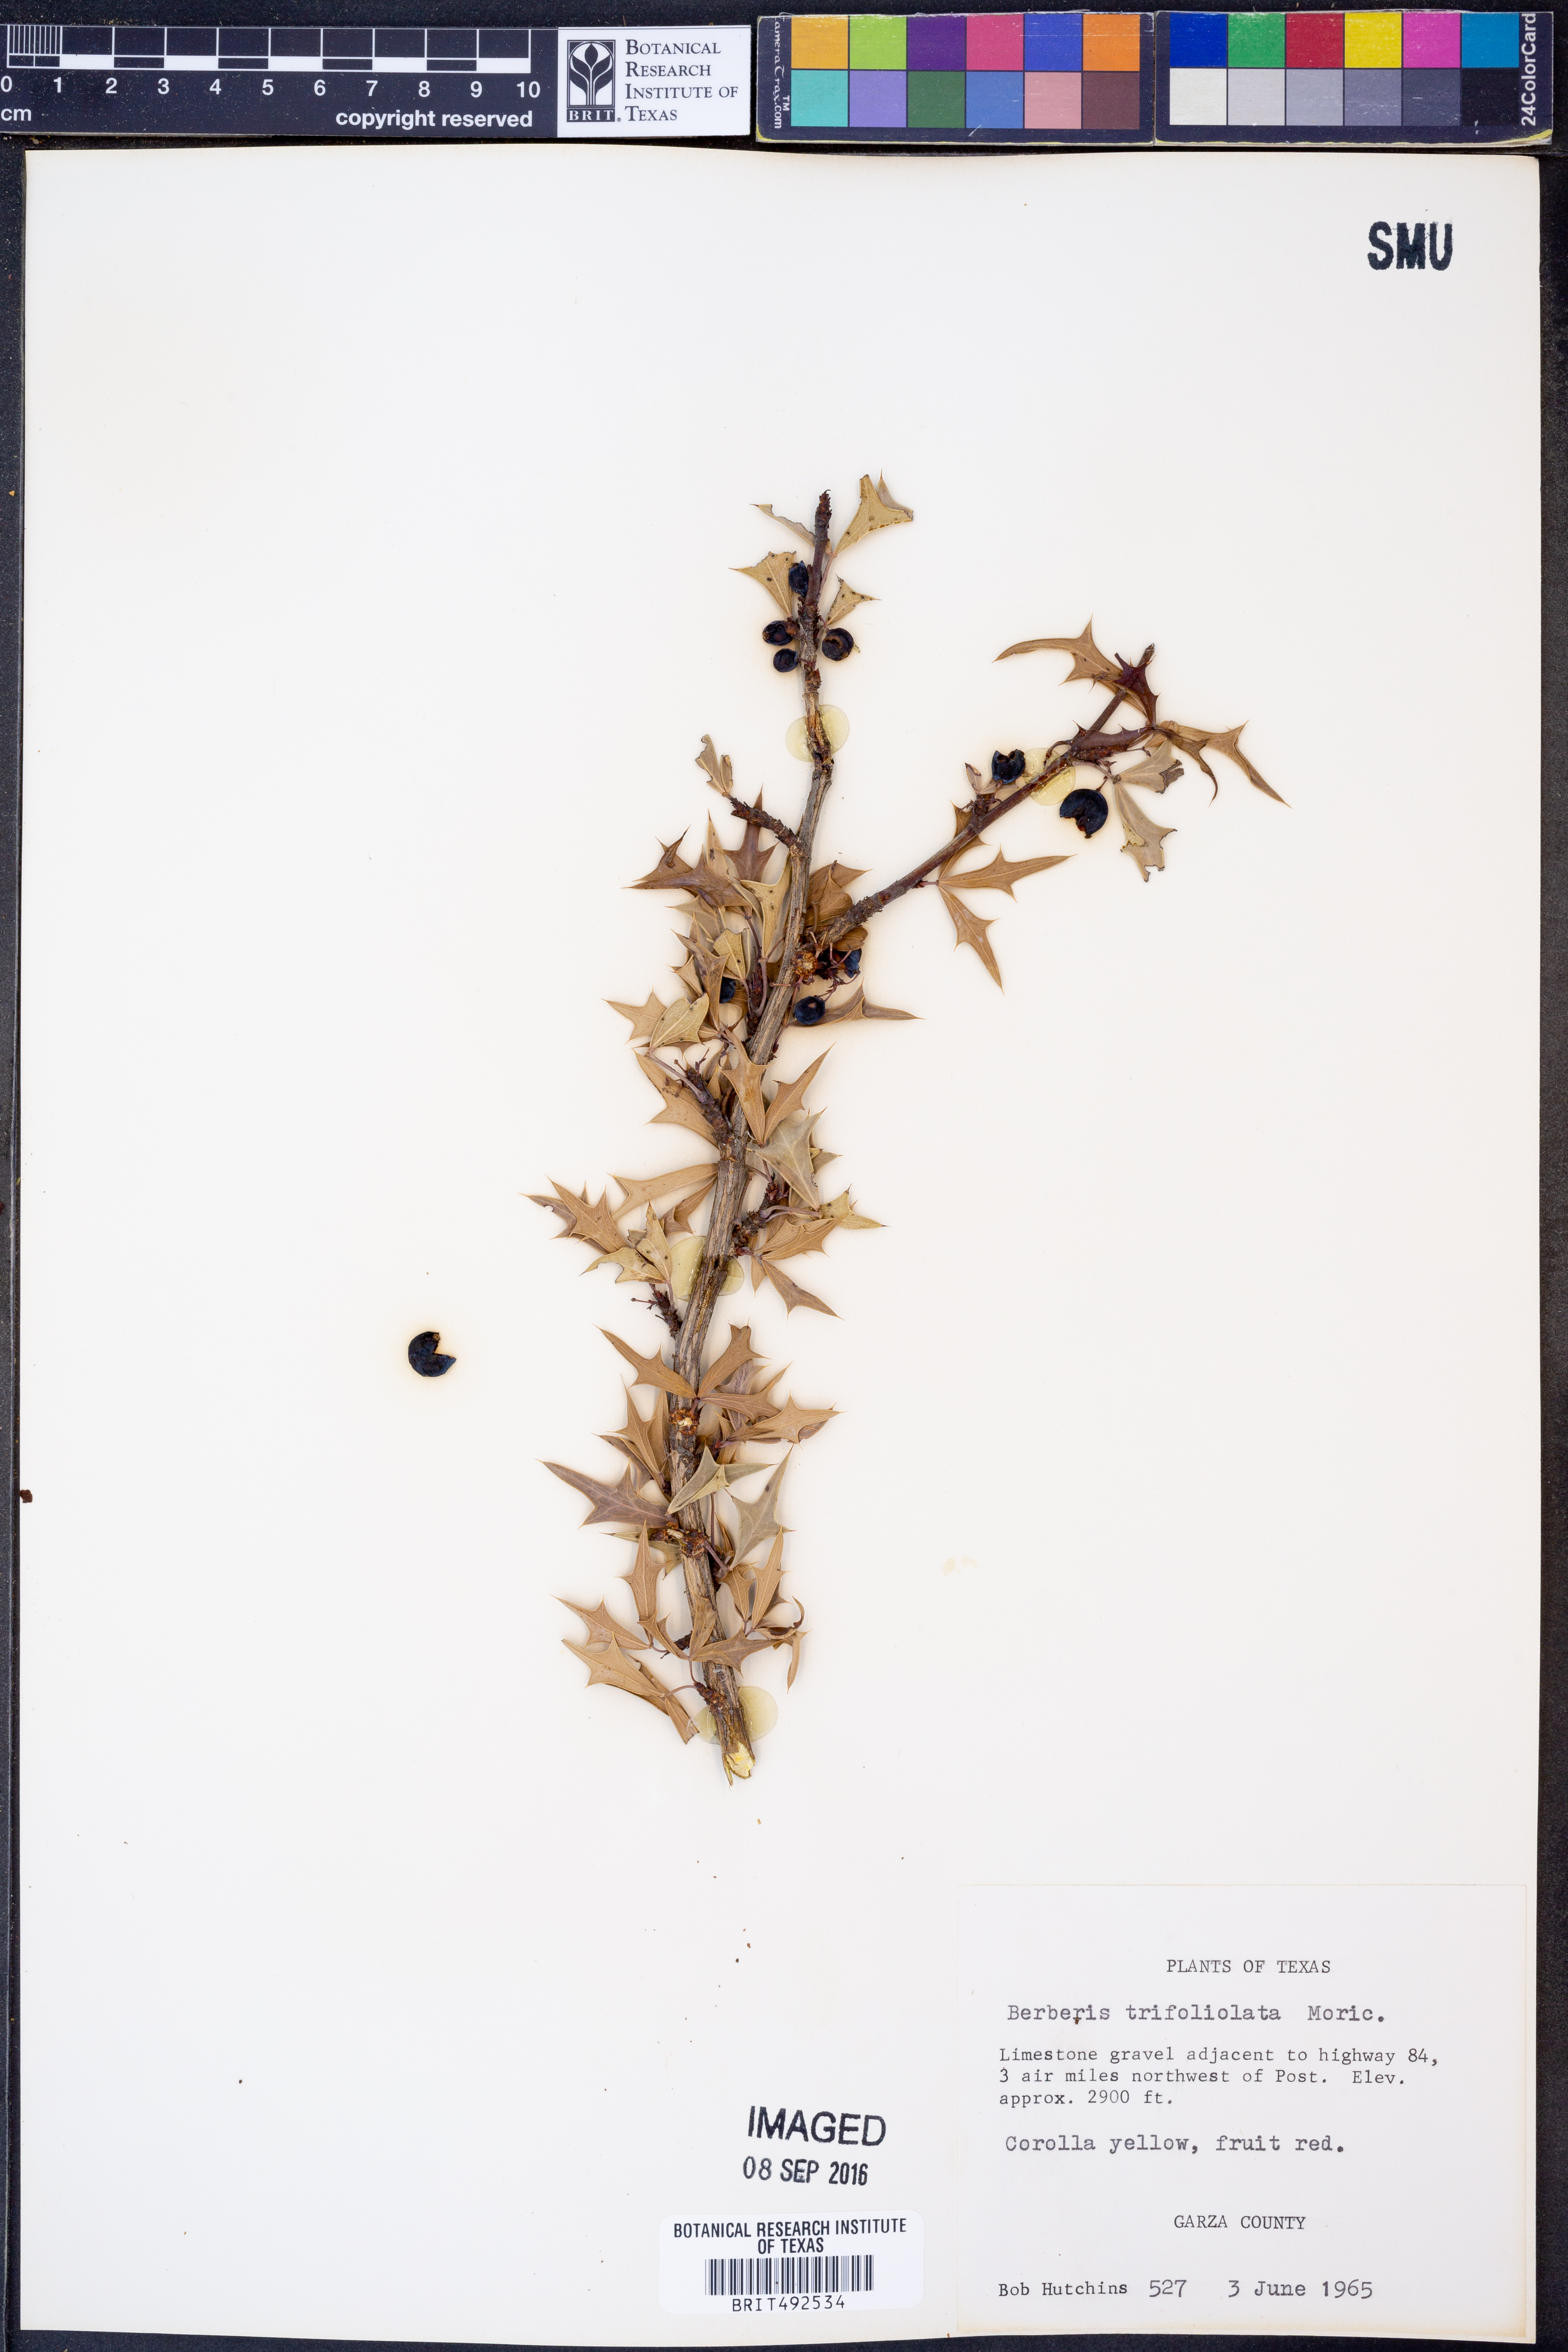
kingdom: Plantae
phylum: Tracheophyta
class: Magnoliopsida
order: Ranunculales
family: Berberidaceae
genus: Alloberberis
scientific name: Alloberberis trifoliolata
